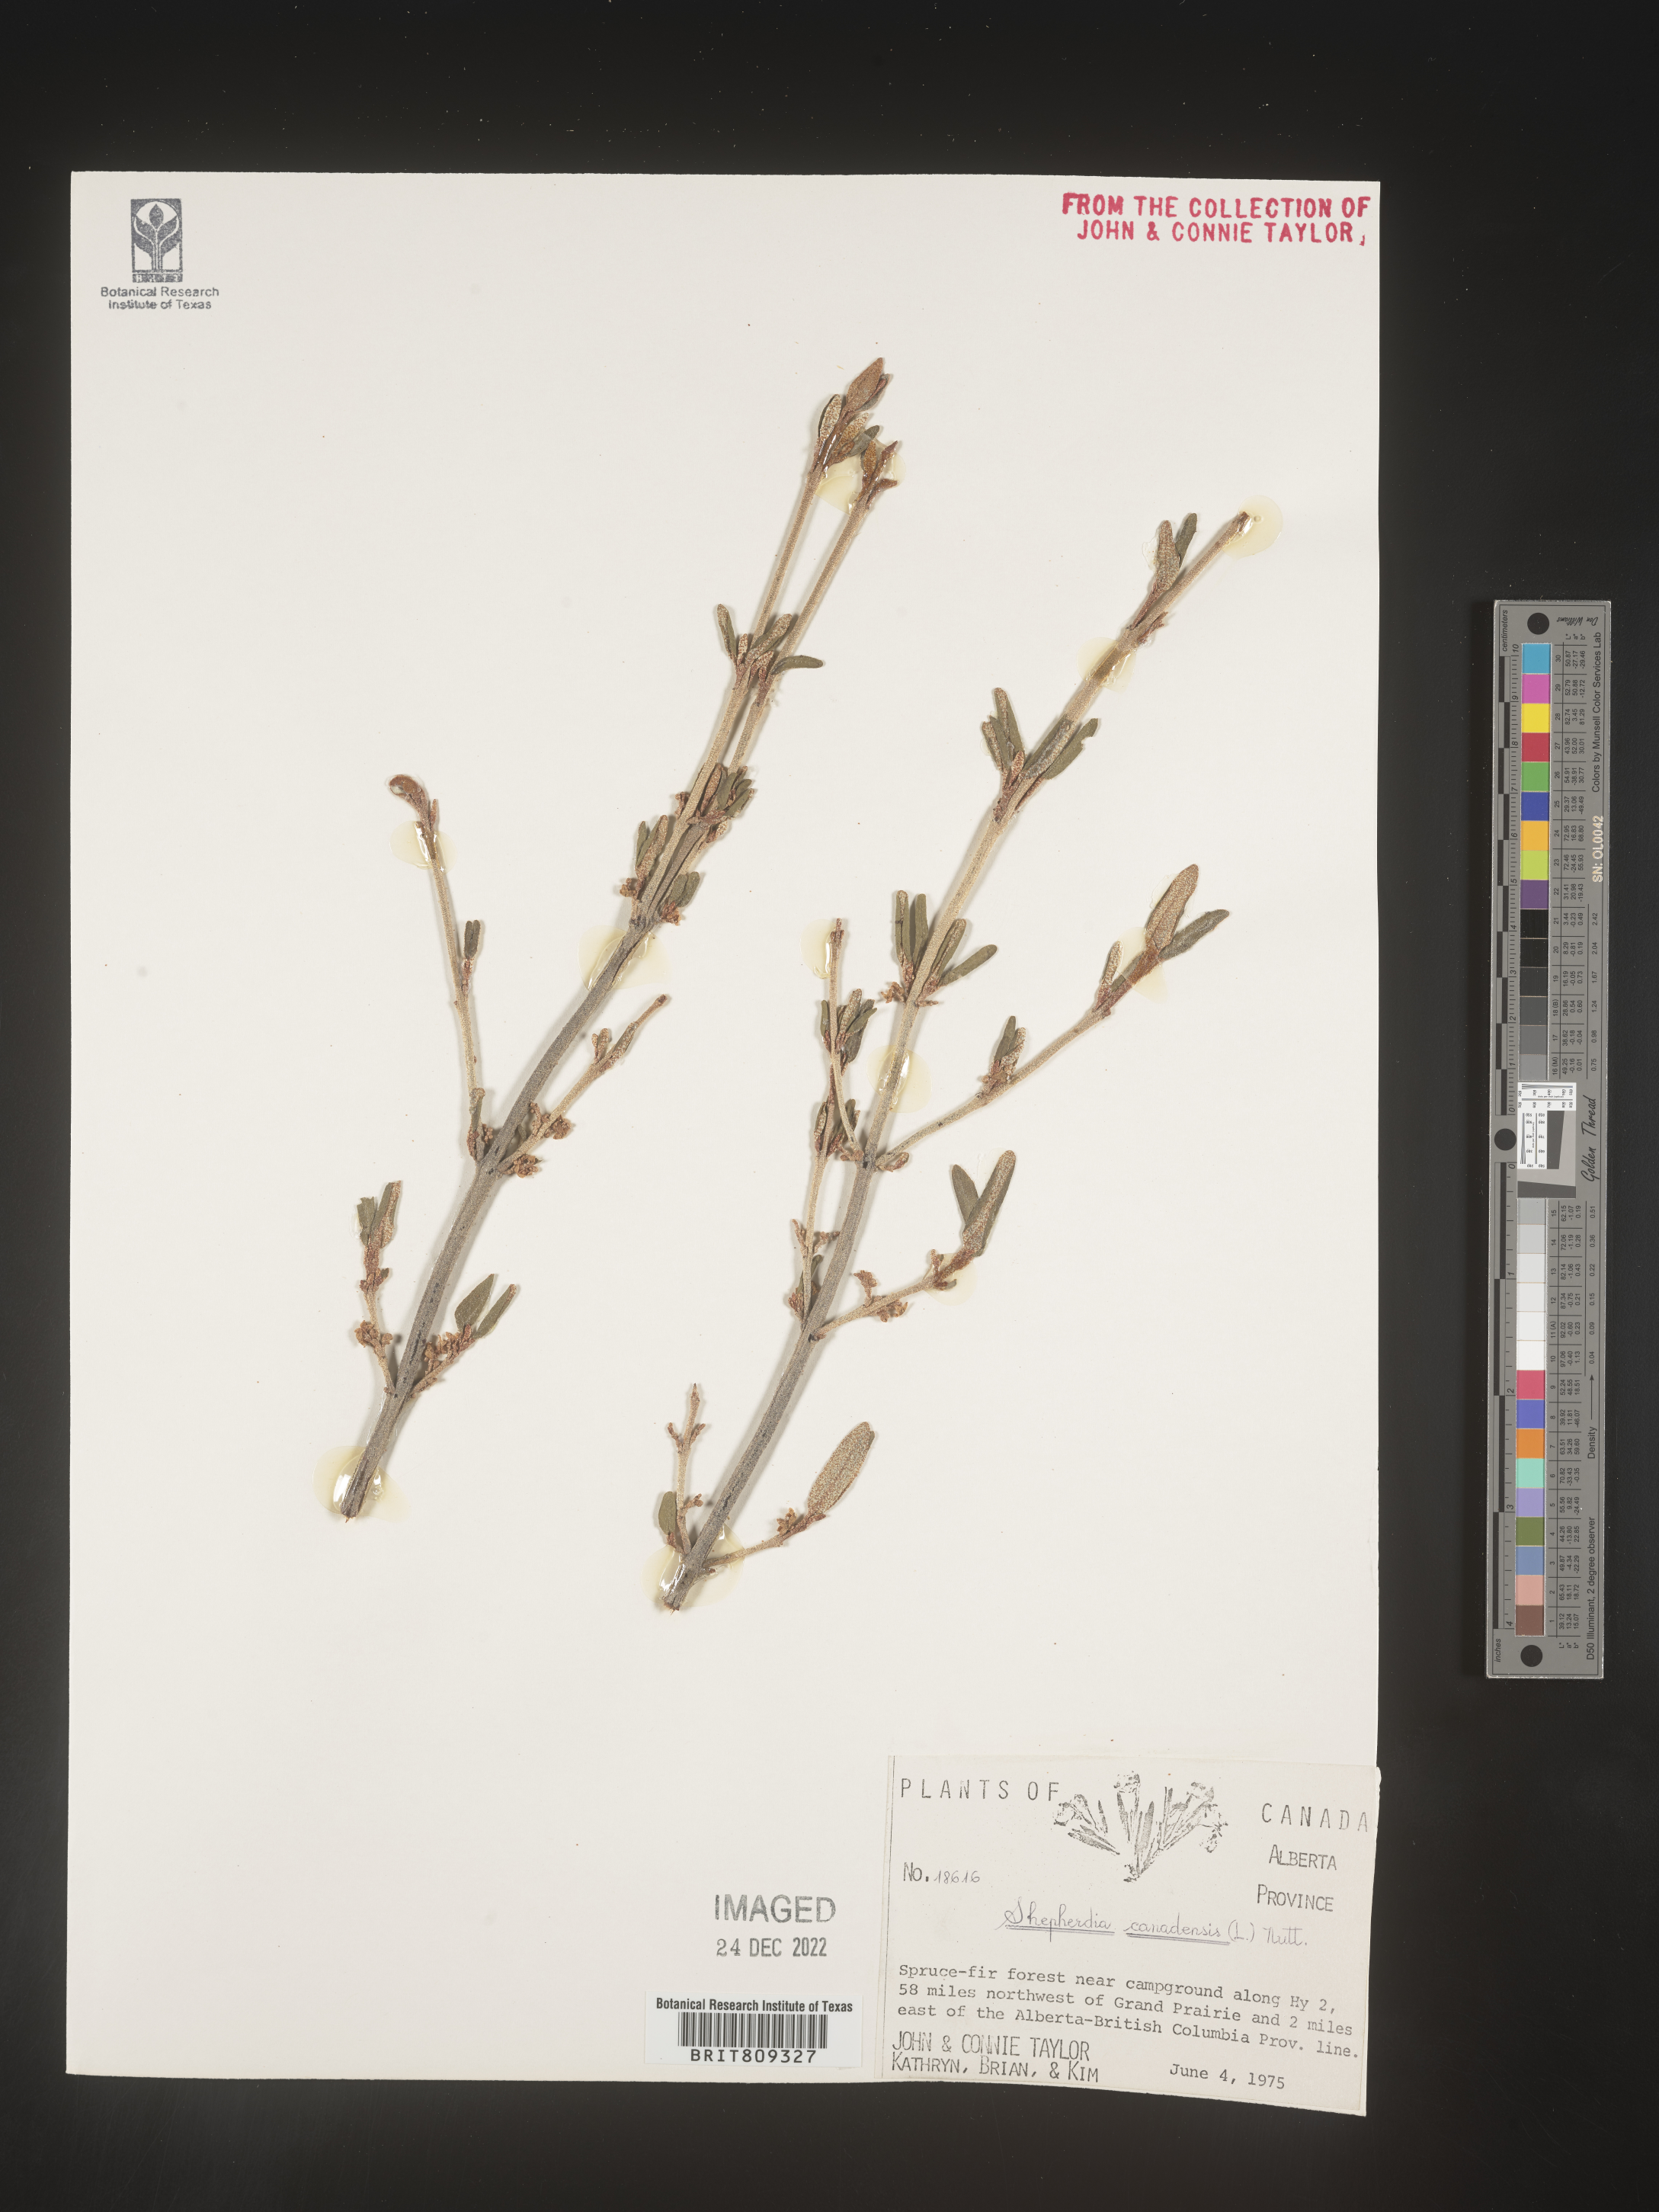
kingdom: Plantae
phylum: Tracheophyta
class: Magnoliopsida
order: Rosales
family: Elaeagnaceae
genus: Shepherdia
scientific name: Shepherdia canadensis
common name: Soapberry
